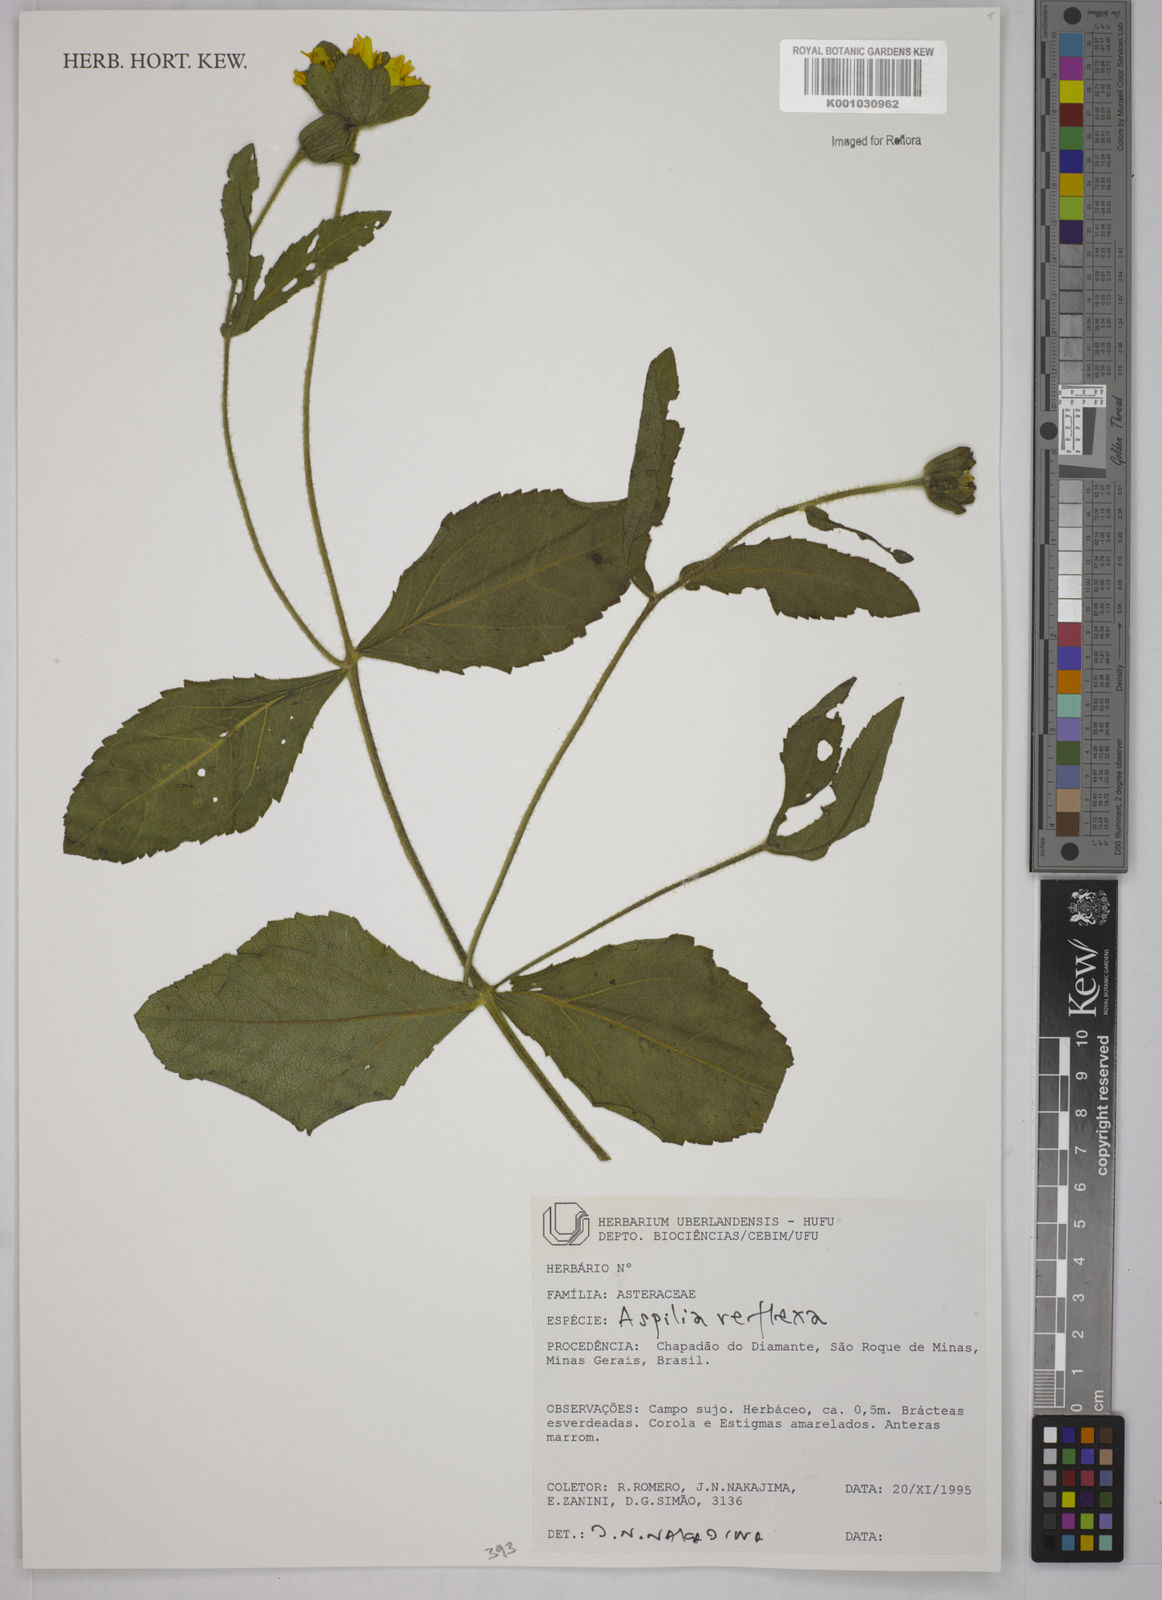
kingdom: Plantae
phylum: Tracheophyta
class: Magnoliopsida
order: Asterales
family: Asteraceae
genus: Wedelia
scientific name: Wedelia reflexa
